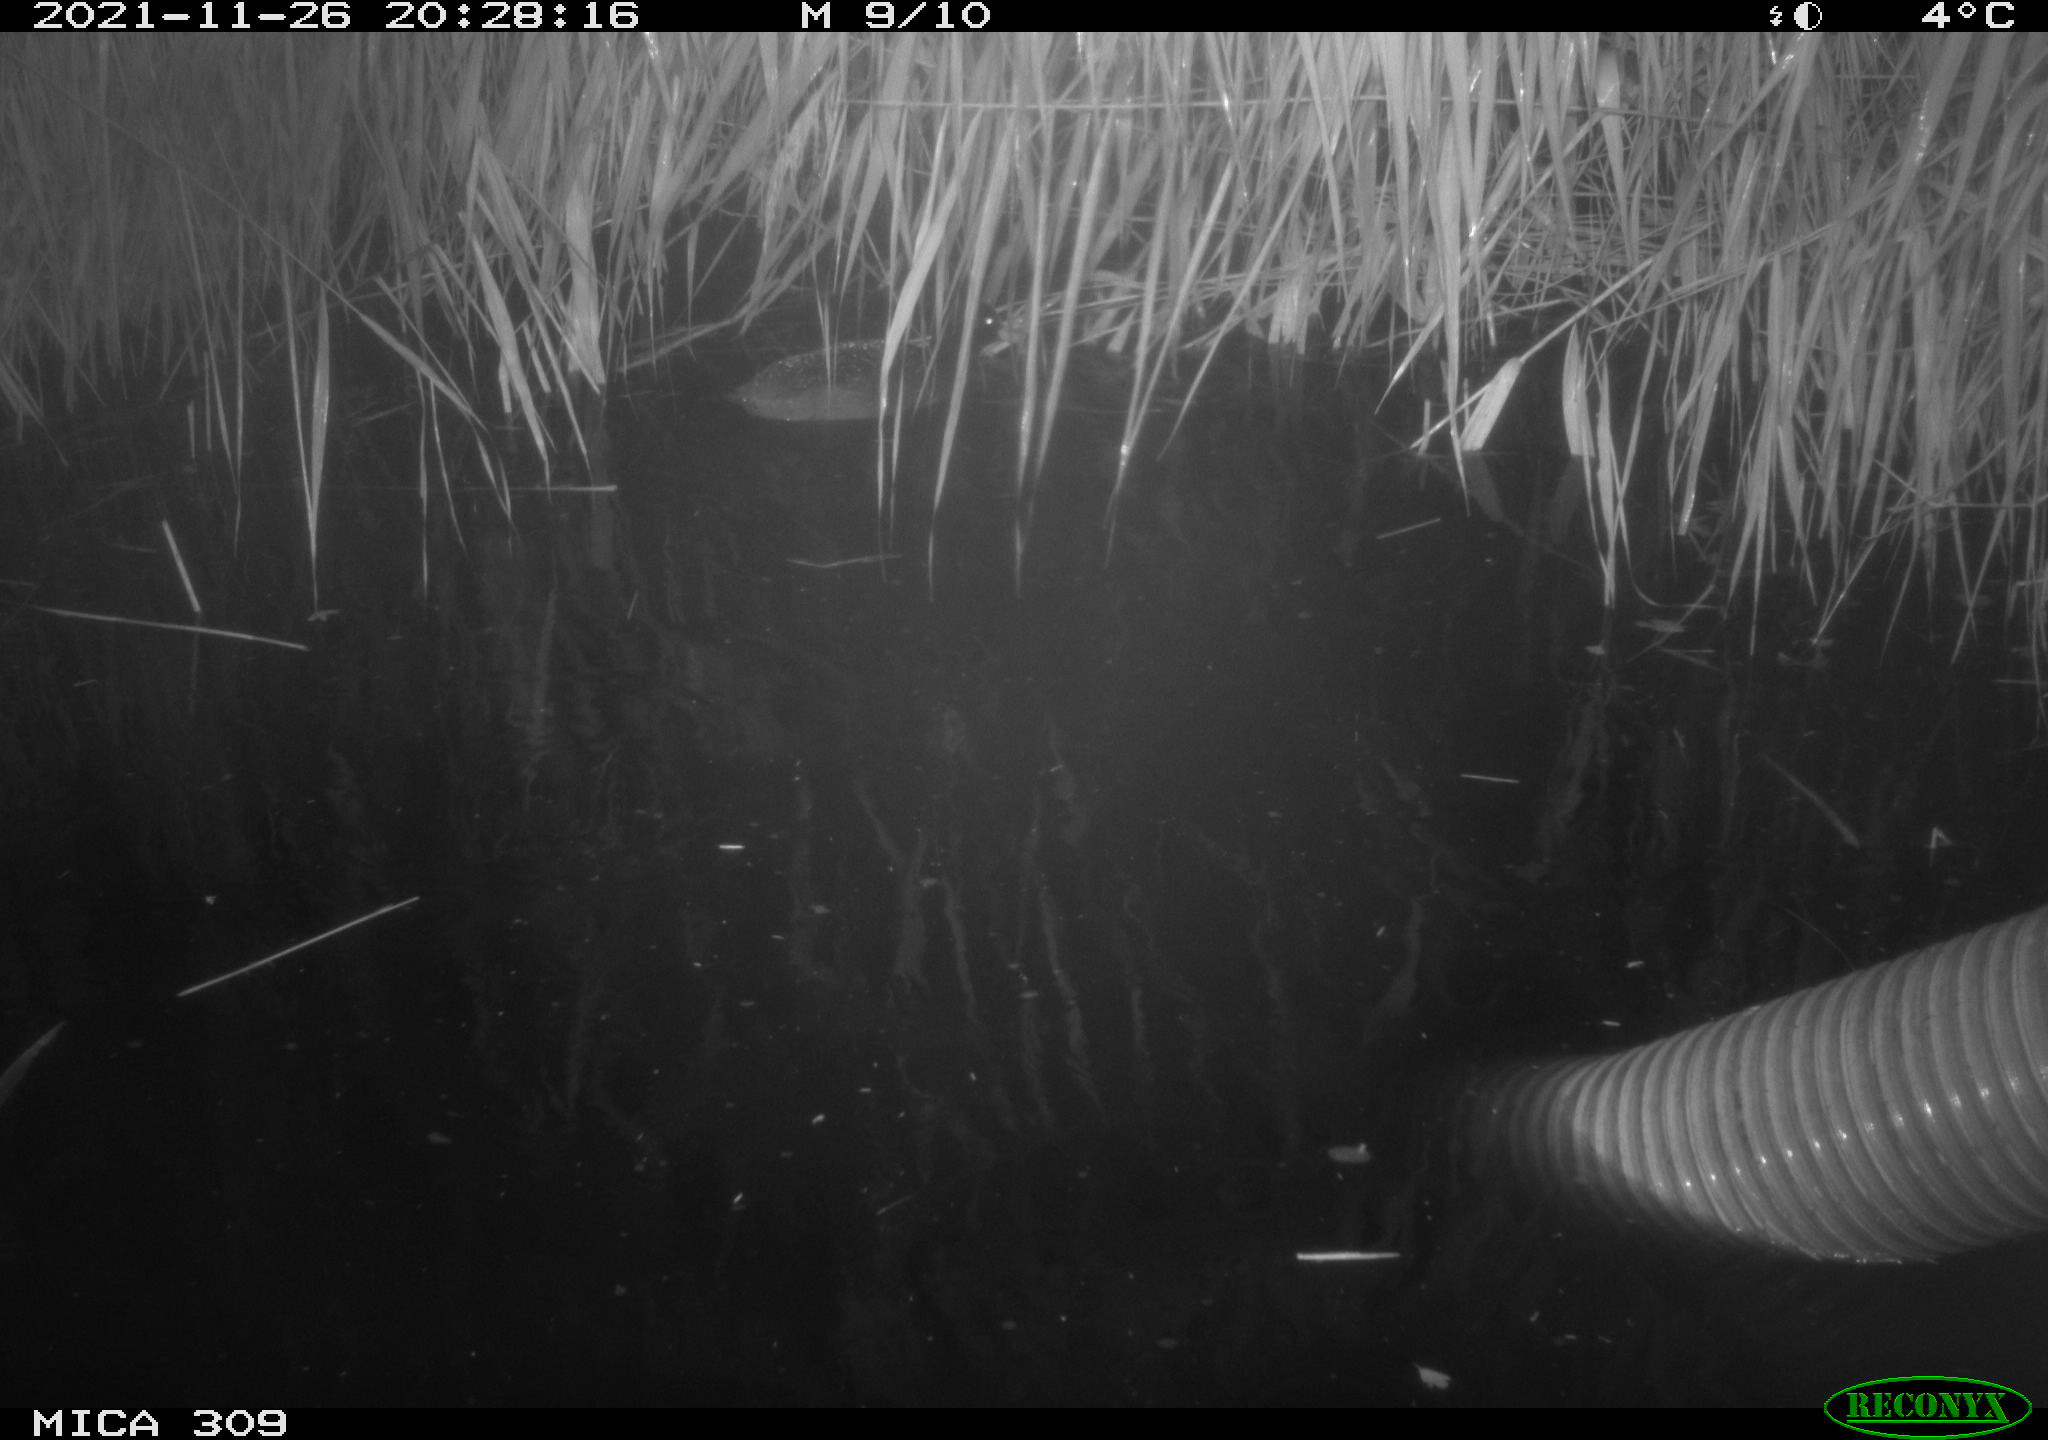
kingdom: Animalia
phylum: Chordata
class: Aves
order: Gruiformes
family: Rallidae
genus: Fulica
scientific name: Fulica atra
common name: Eurasian coot
